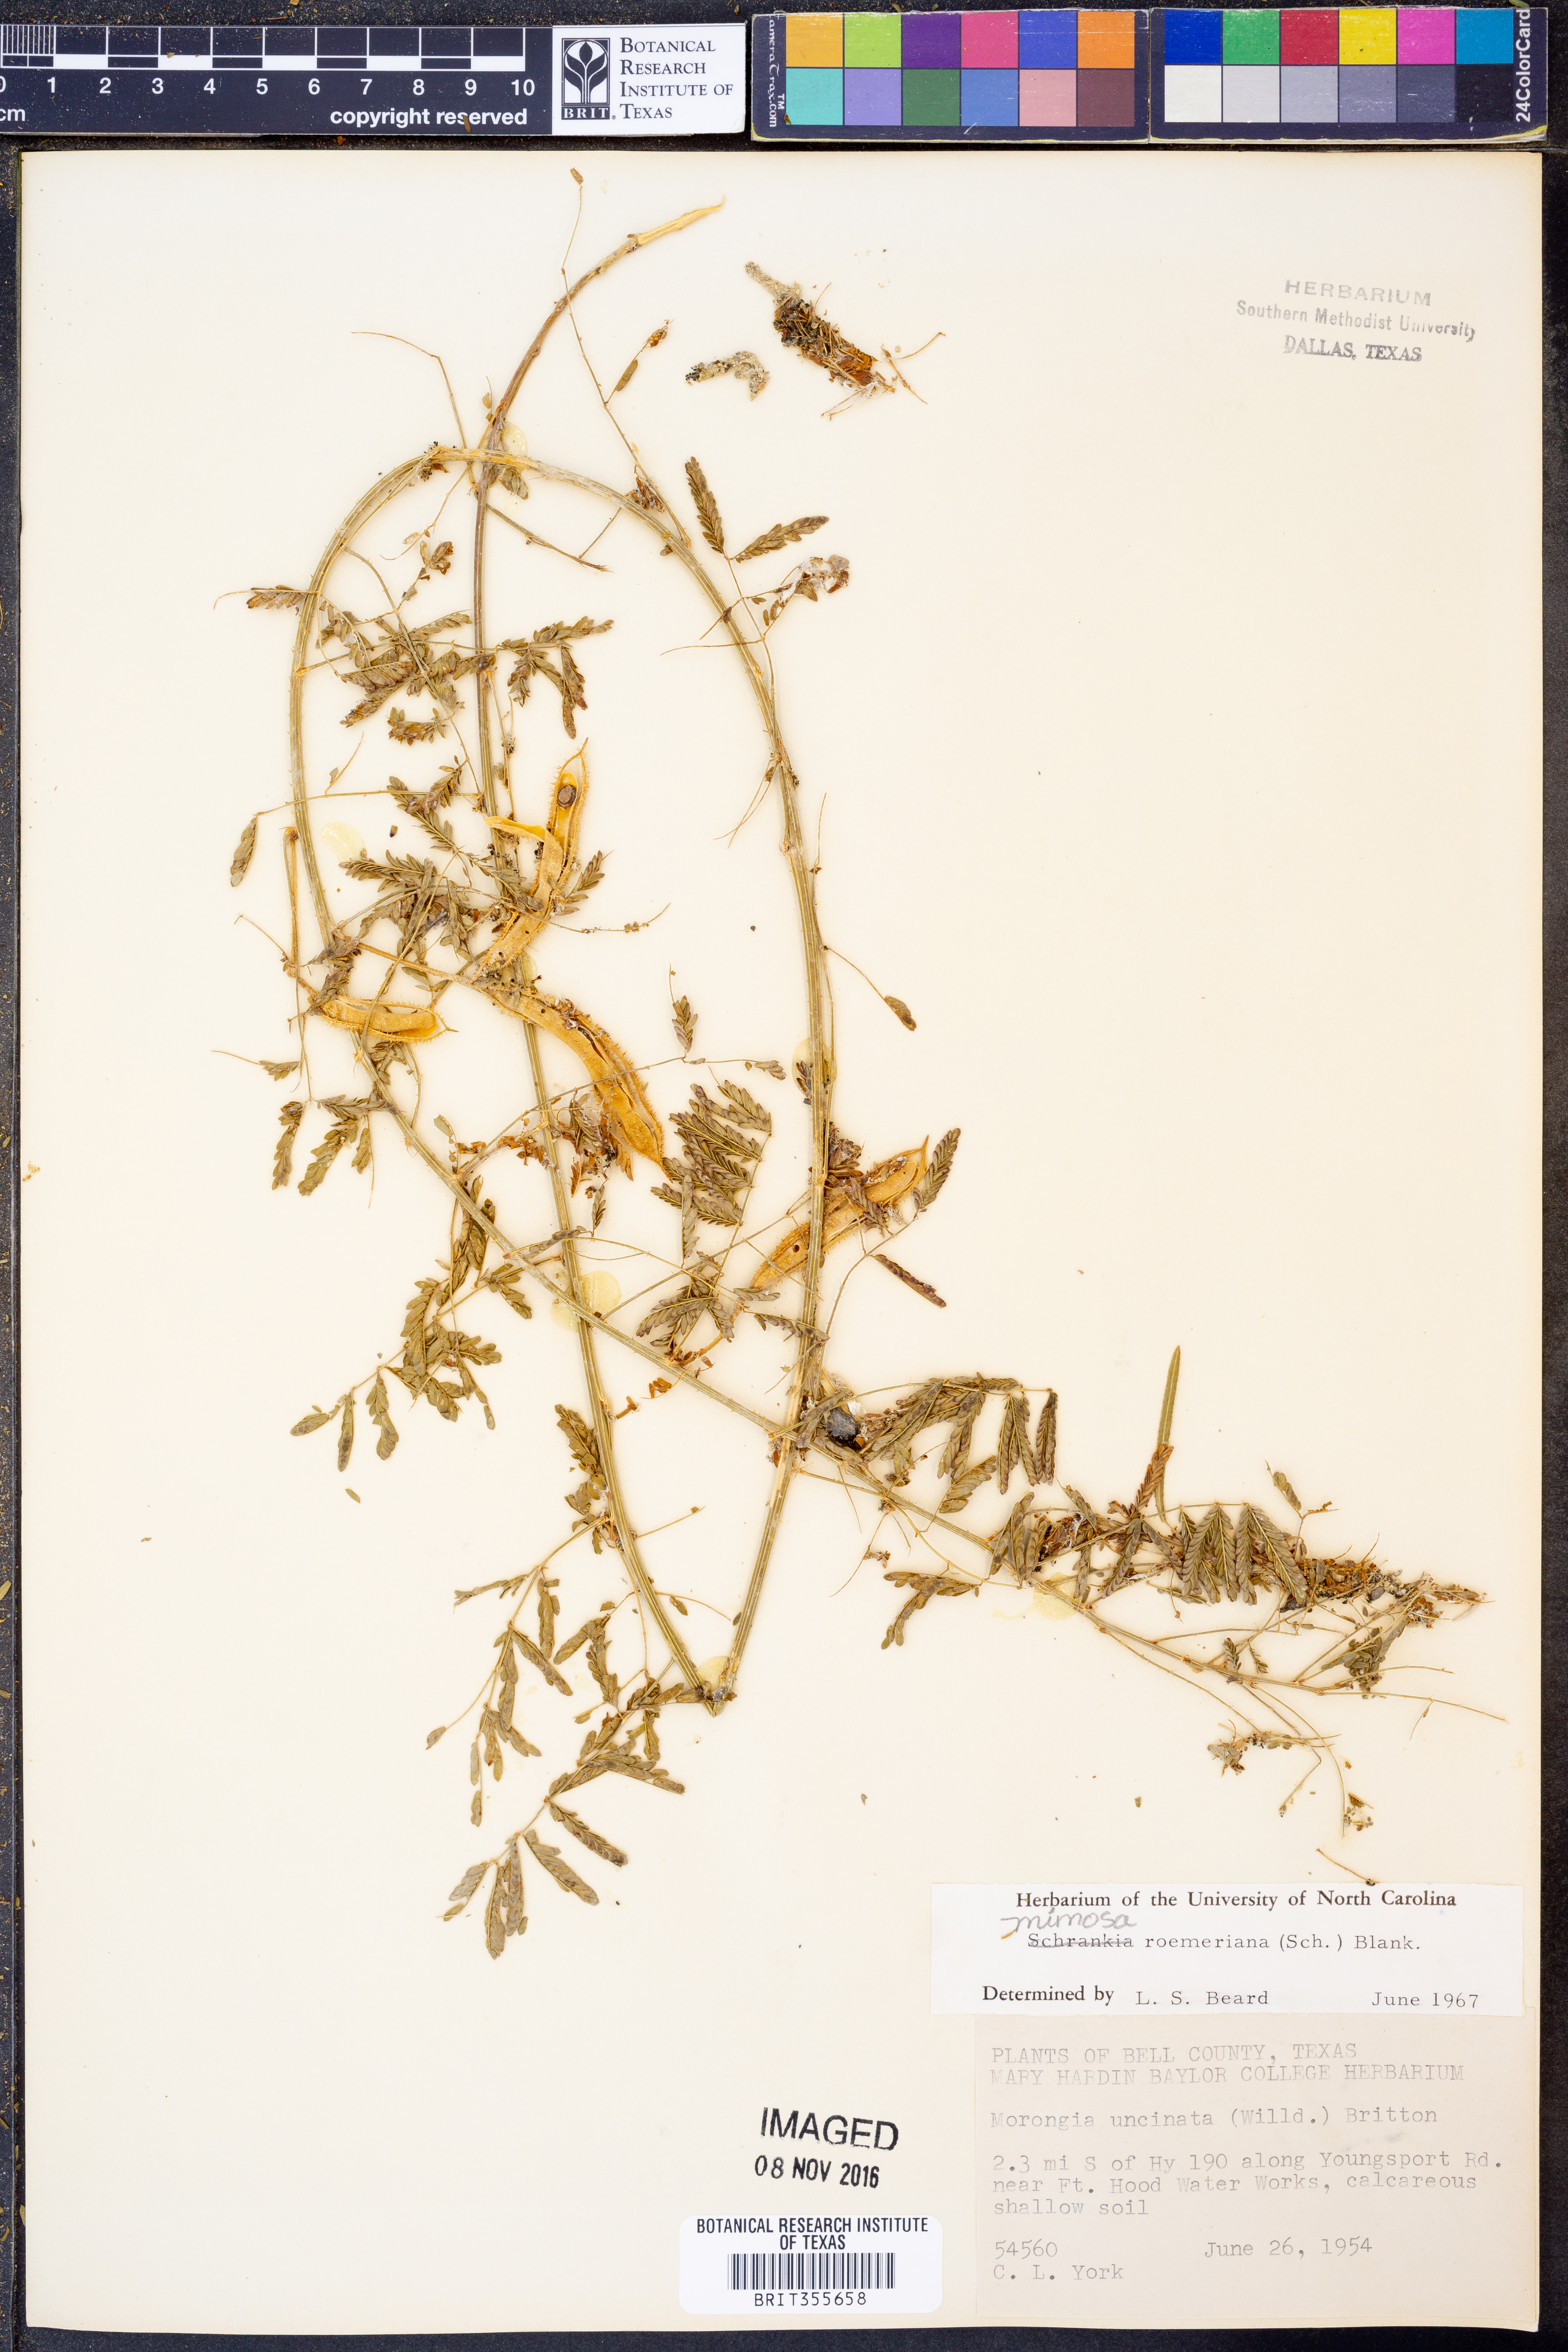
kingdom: Plantae
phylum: Tracheophyta
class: Magnoliopsida
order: Fabales
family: Fabaceae
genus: Mimosa
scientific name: Mimosa quadrivalvis
